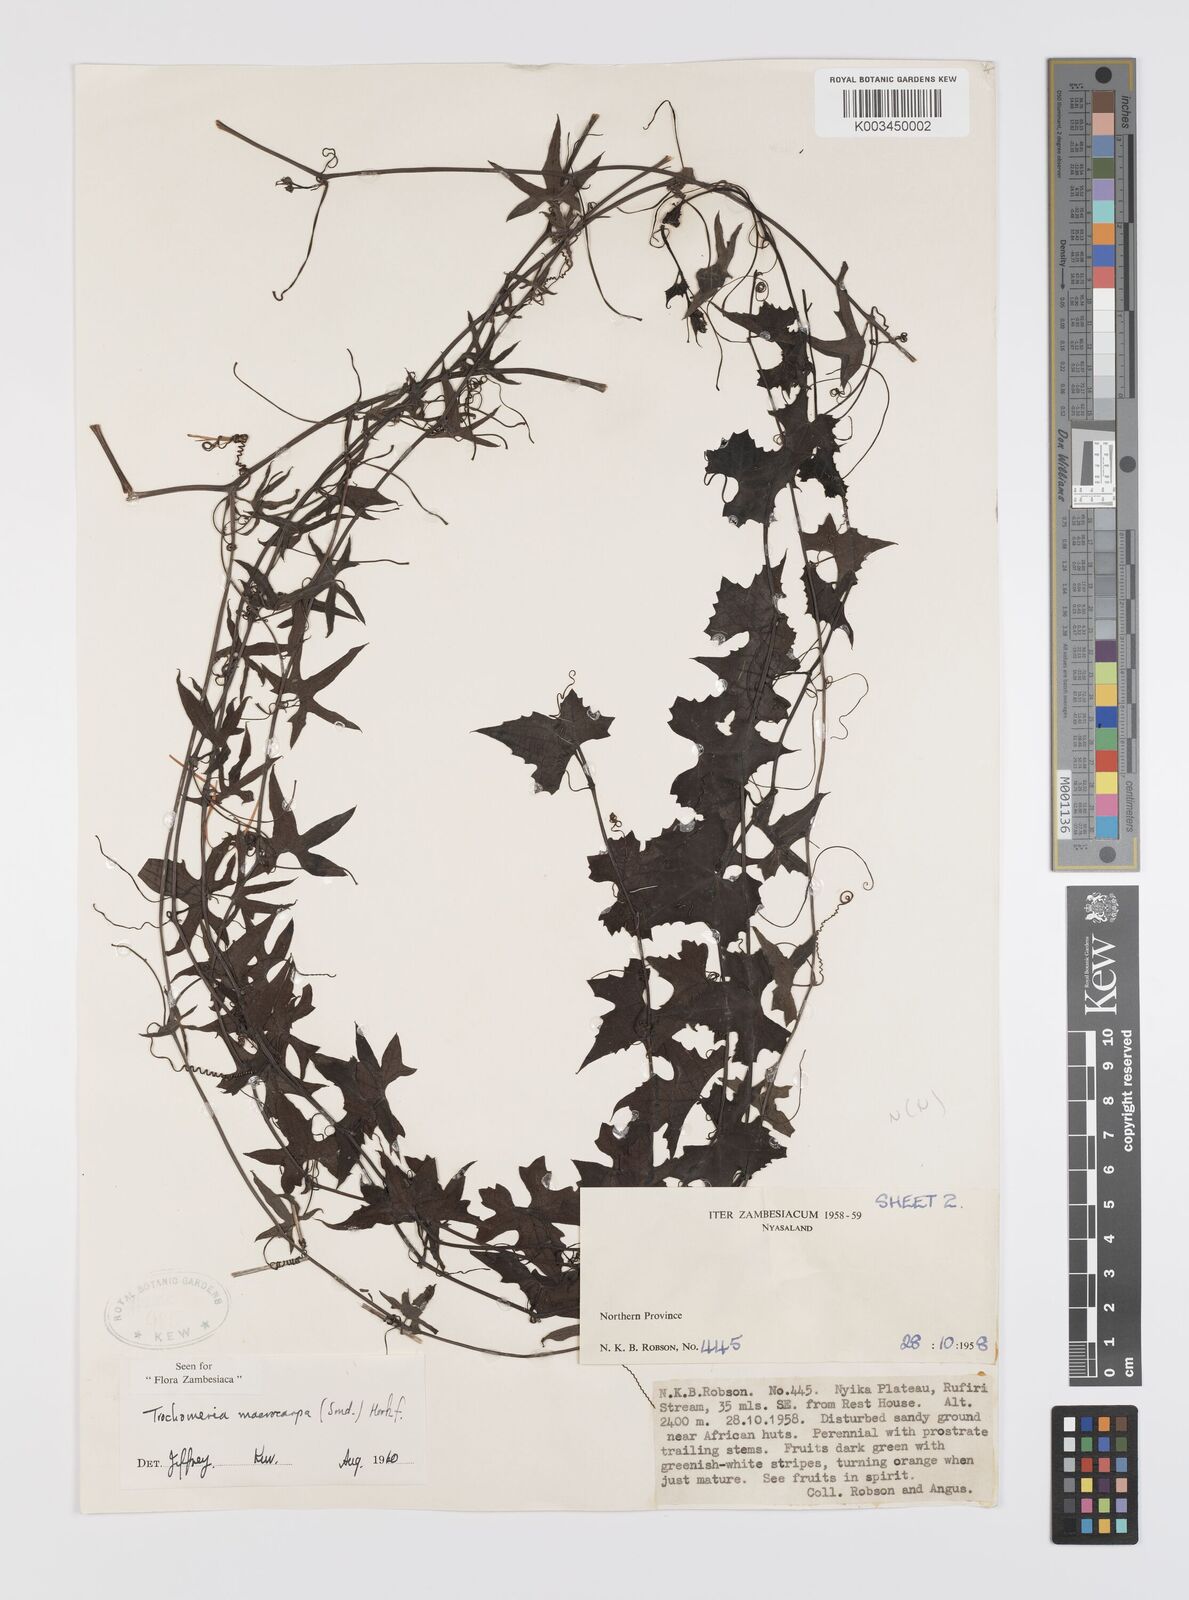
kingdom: Plantae
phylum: Tracheophyta
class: Magnoliopsida
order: Cucurbitales
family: Cucurbitaceae
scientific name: Cucurbitaceae
